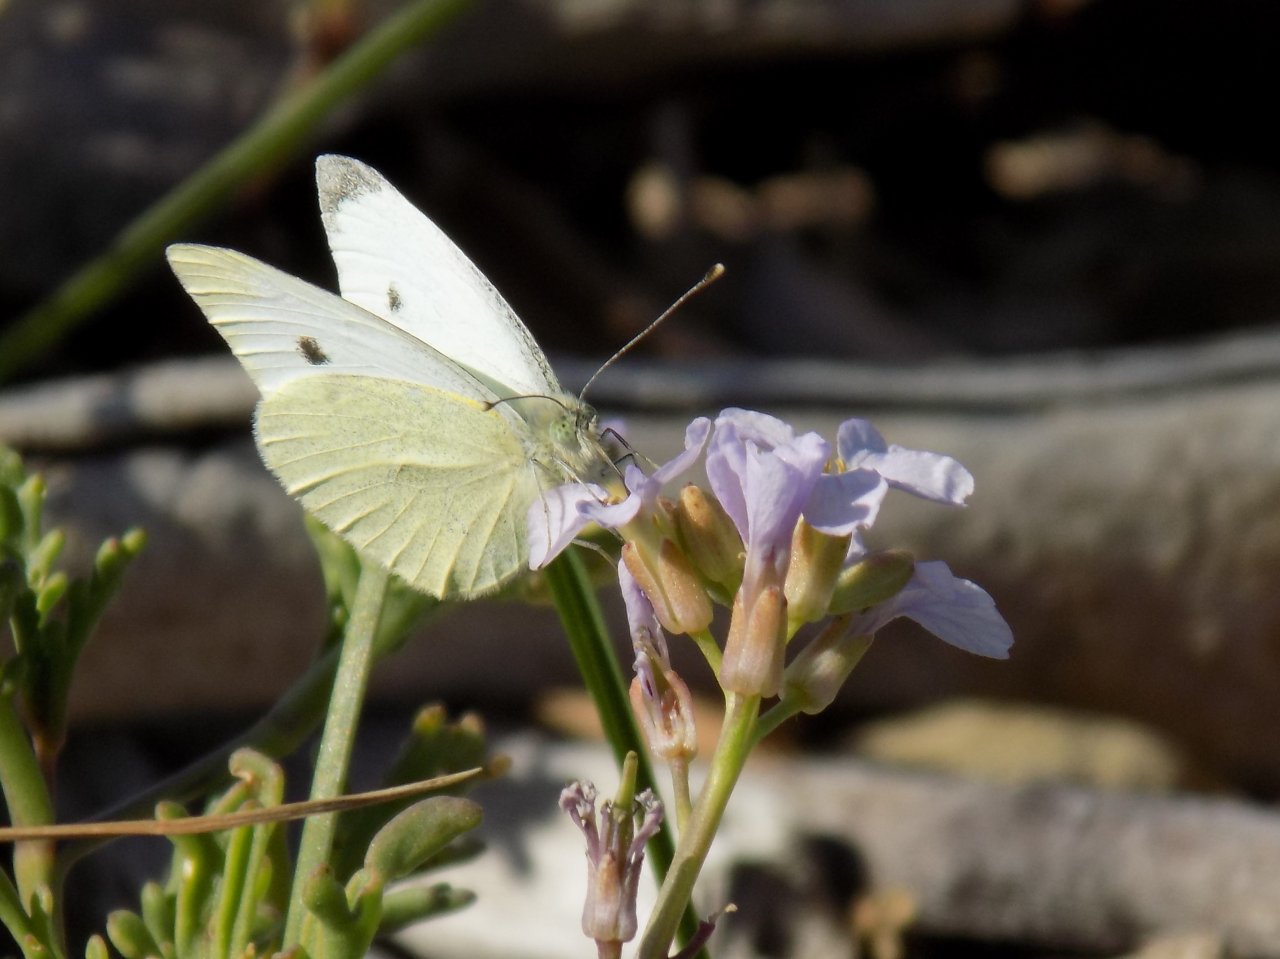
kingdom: Animalia
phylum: Arthropoda
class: Insecta
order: Lepidoptera
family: Pieridae
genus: Pieris
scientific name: Pieris rapae
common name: Cabbage White
